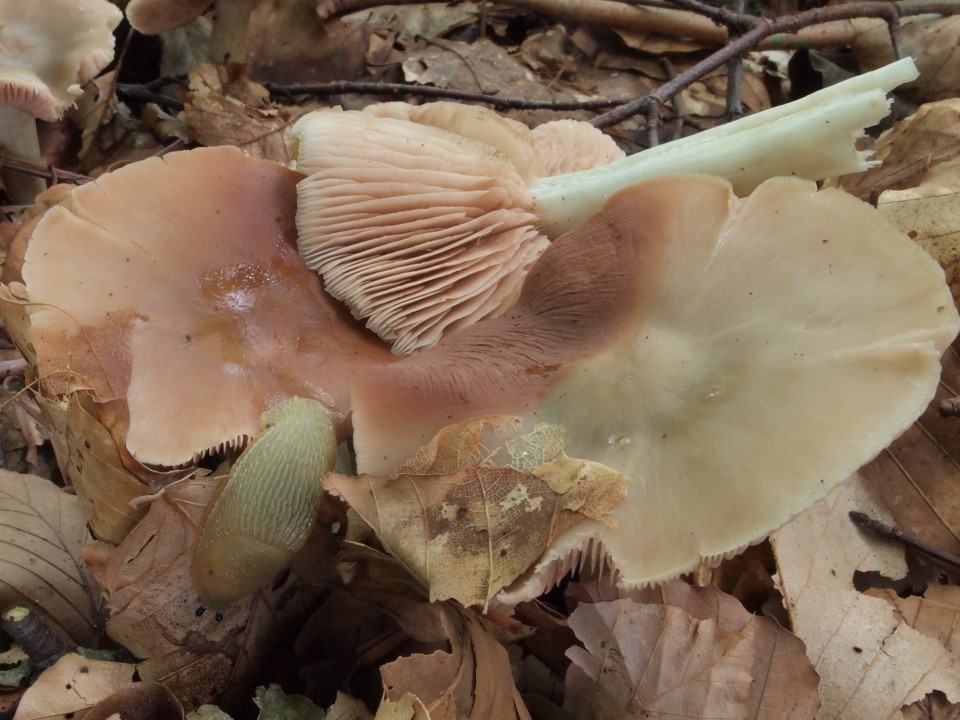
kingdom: Fungi
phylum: Basidiomycota
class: Agaricomycetes
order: Agaricales
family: Entolomataceae
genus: Entoloma
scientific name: Entoloma rhodopolium
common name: skov-rødblad
